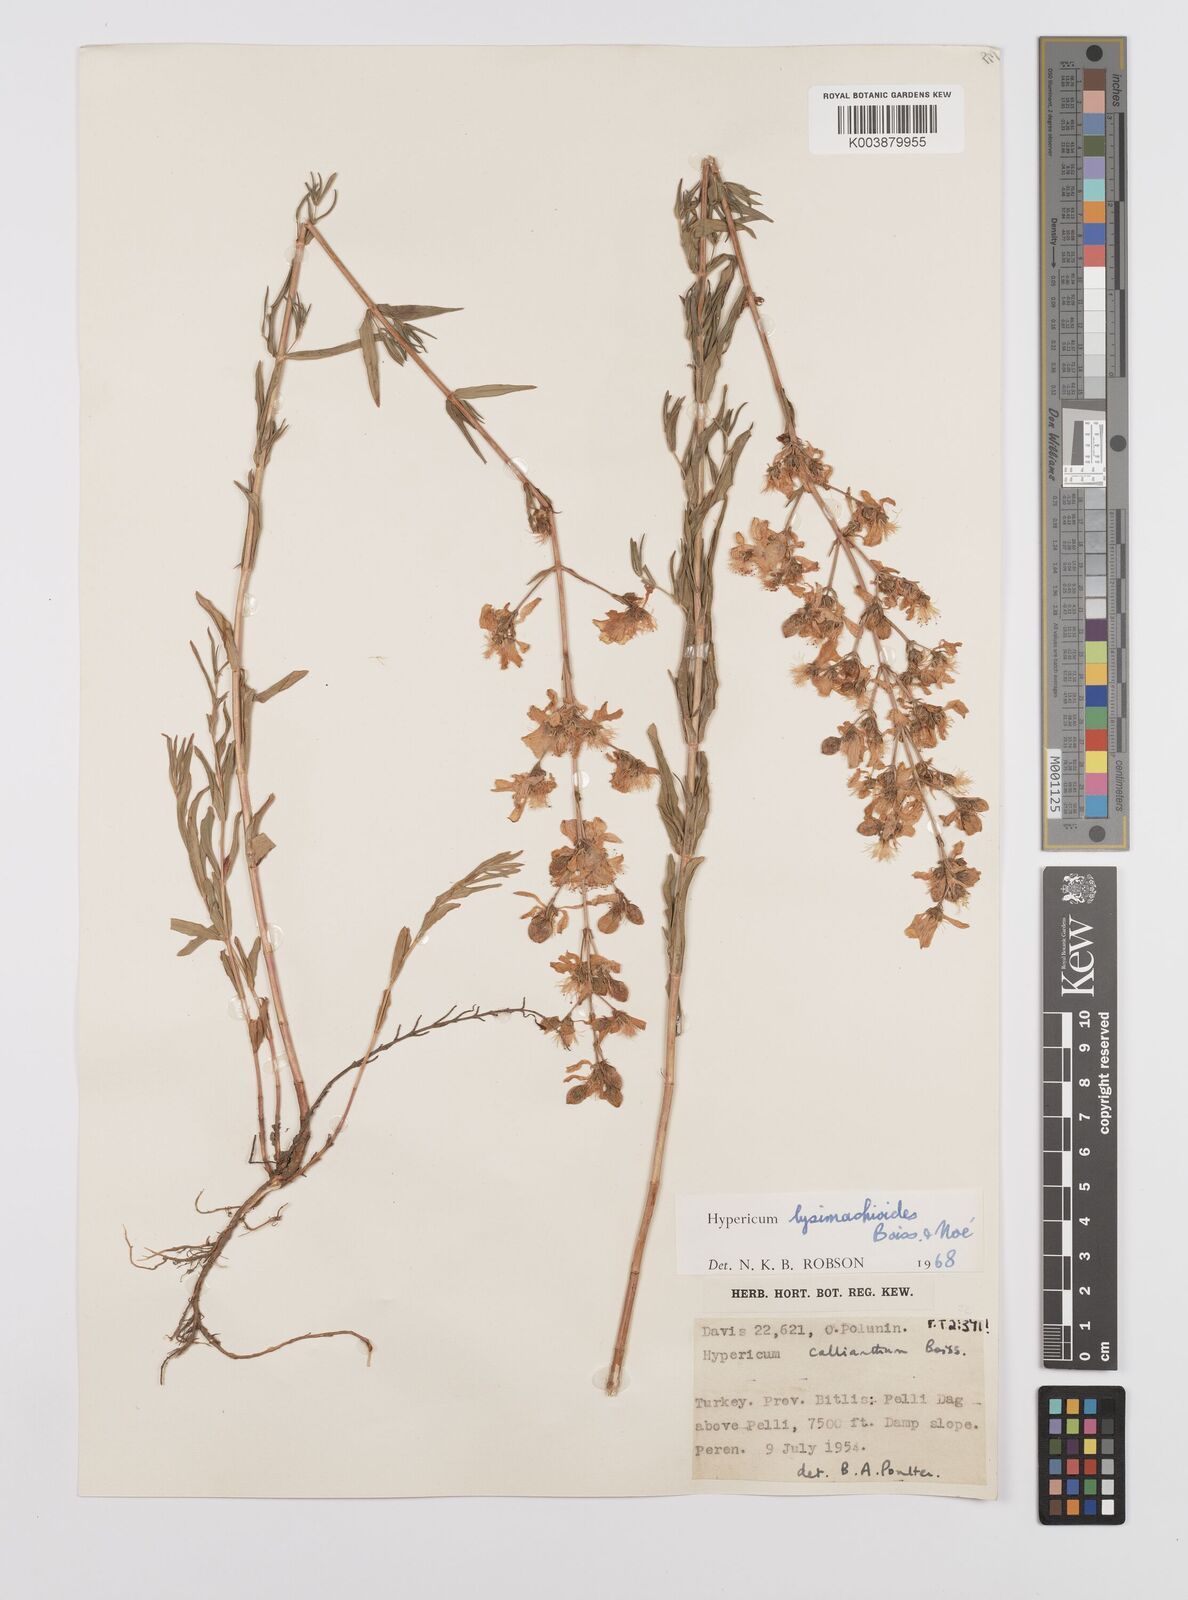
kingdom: Plantae
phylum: Tracheophyta
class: Magnoliopsida
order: Malpighiales
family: Hypericaceae
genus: Hypericum
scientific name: Hypericum lysimachioides
